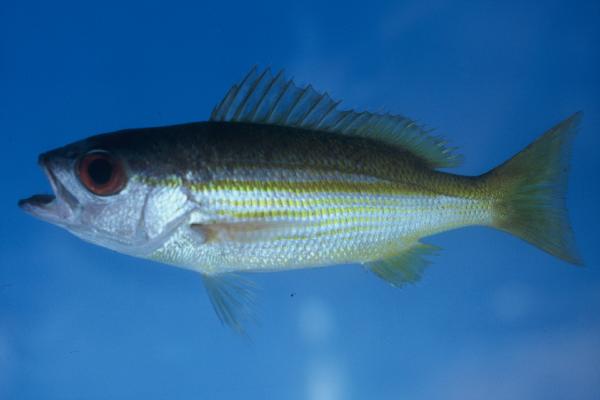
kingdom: Animalia
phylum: Chordata
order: Perciformes
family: Lutjanidae
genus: Lutjanus
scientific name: Lutjanus lutjanus
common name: Bigeye snapper
